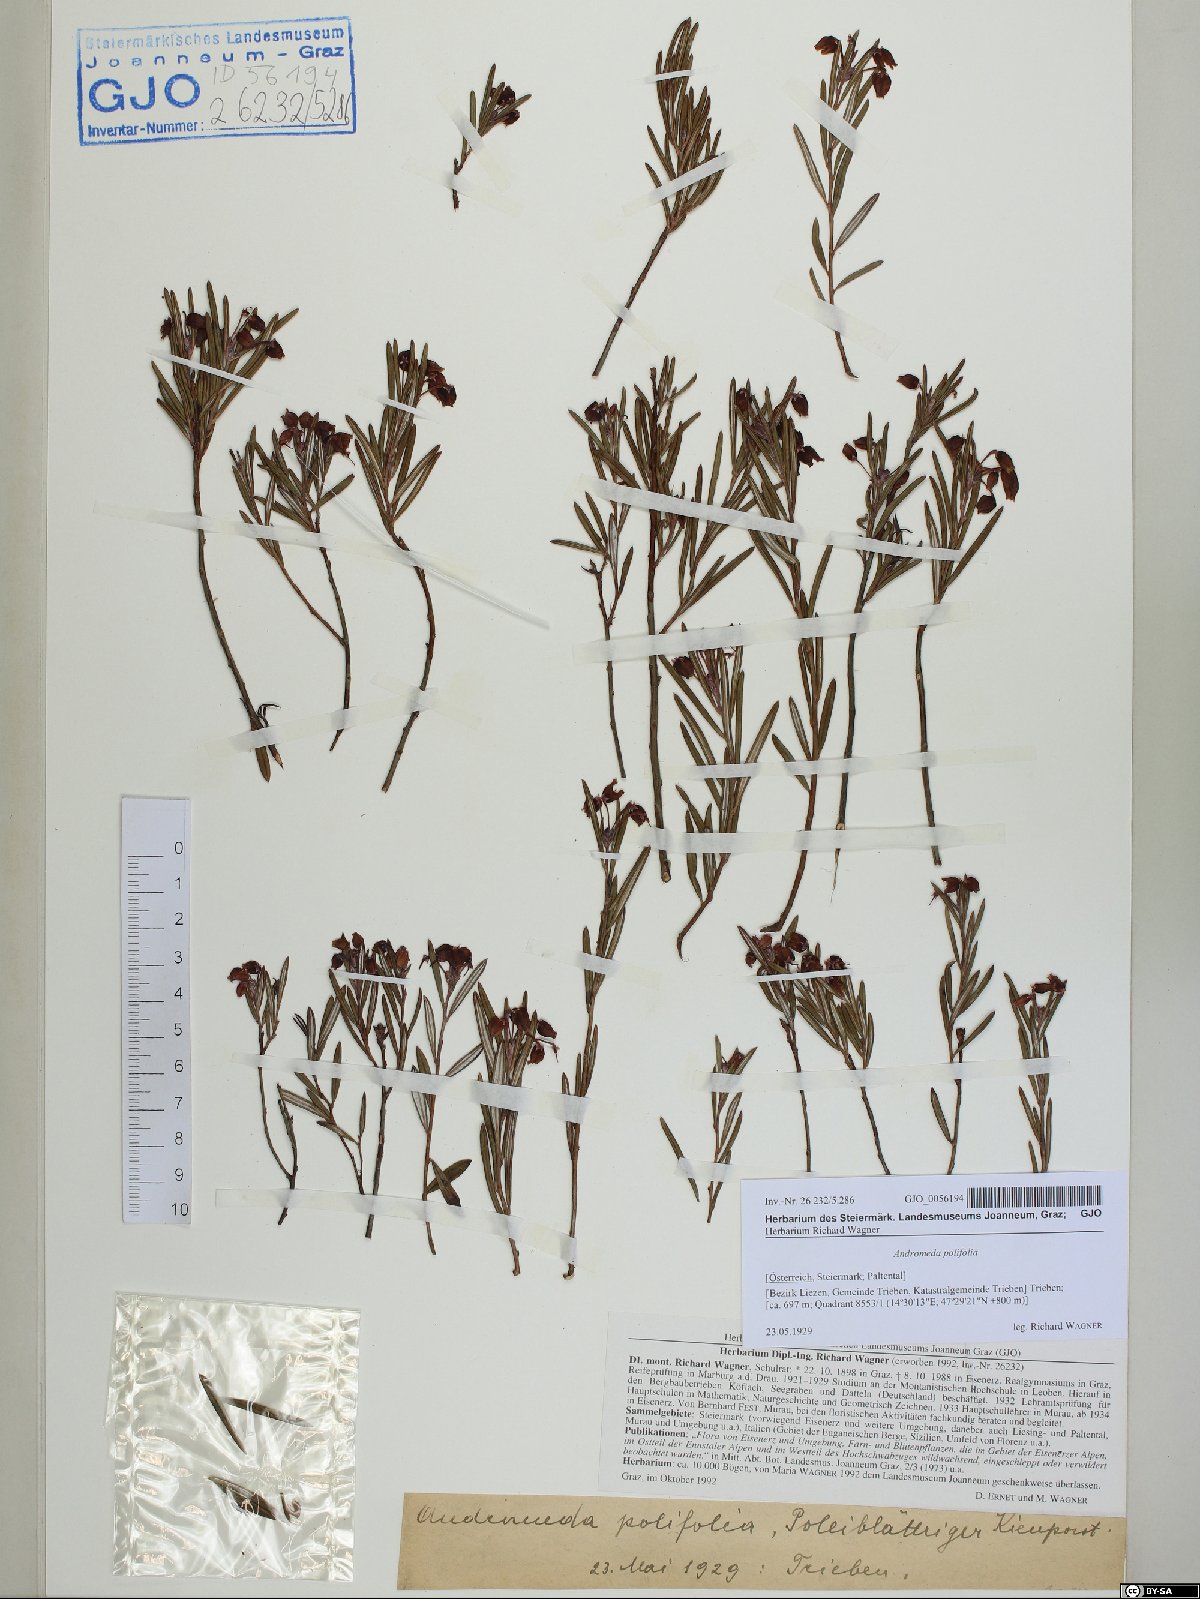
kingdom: Plantae
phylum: Tracheophyta
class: Magnoliopsida
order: Ericales
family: Ericaceae
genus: Andromeda
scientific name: Andromeda polifolia
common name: Bog-rosemary
